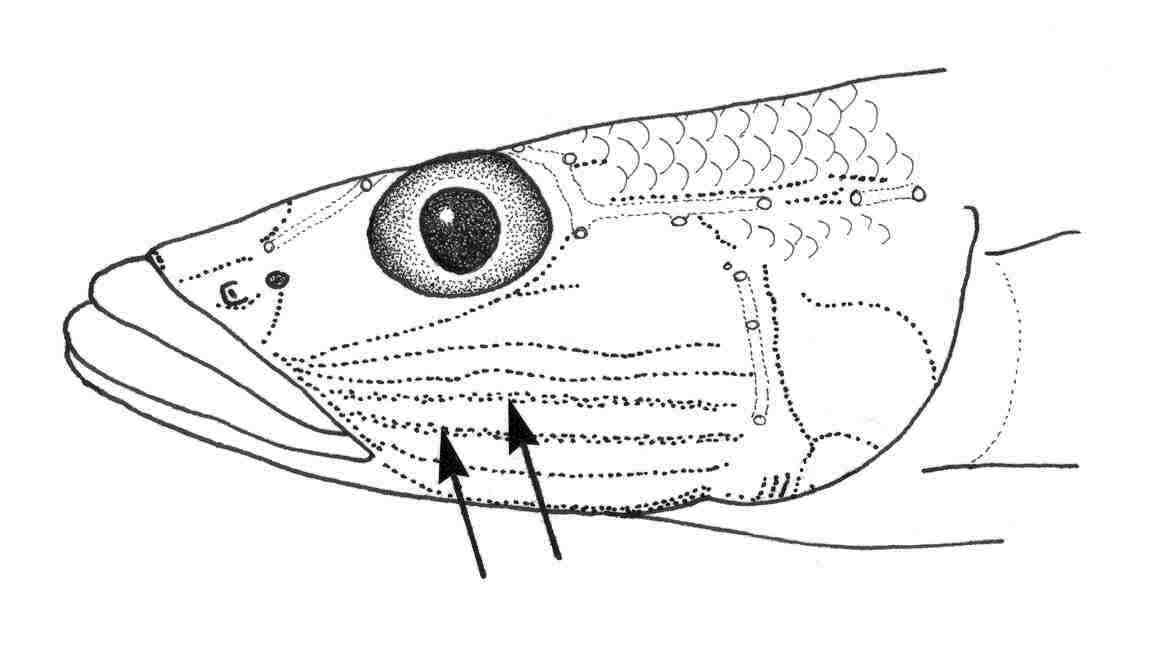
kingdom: Animalia
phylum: Chordata
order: Perciformes
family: Gobiidae
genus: Glossogobius
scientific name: Glossogobius giuris
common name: Tank goby
